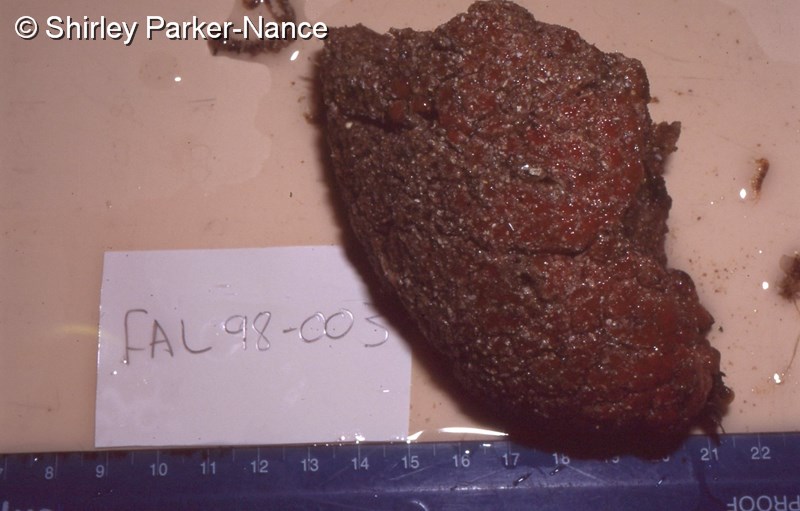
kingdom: Animalia
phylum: Chordata
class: Ascidiacea
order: Aplousobranchia
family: Polyclinidae
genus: Aplidium
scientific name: Aplidium mernooensis
